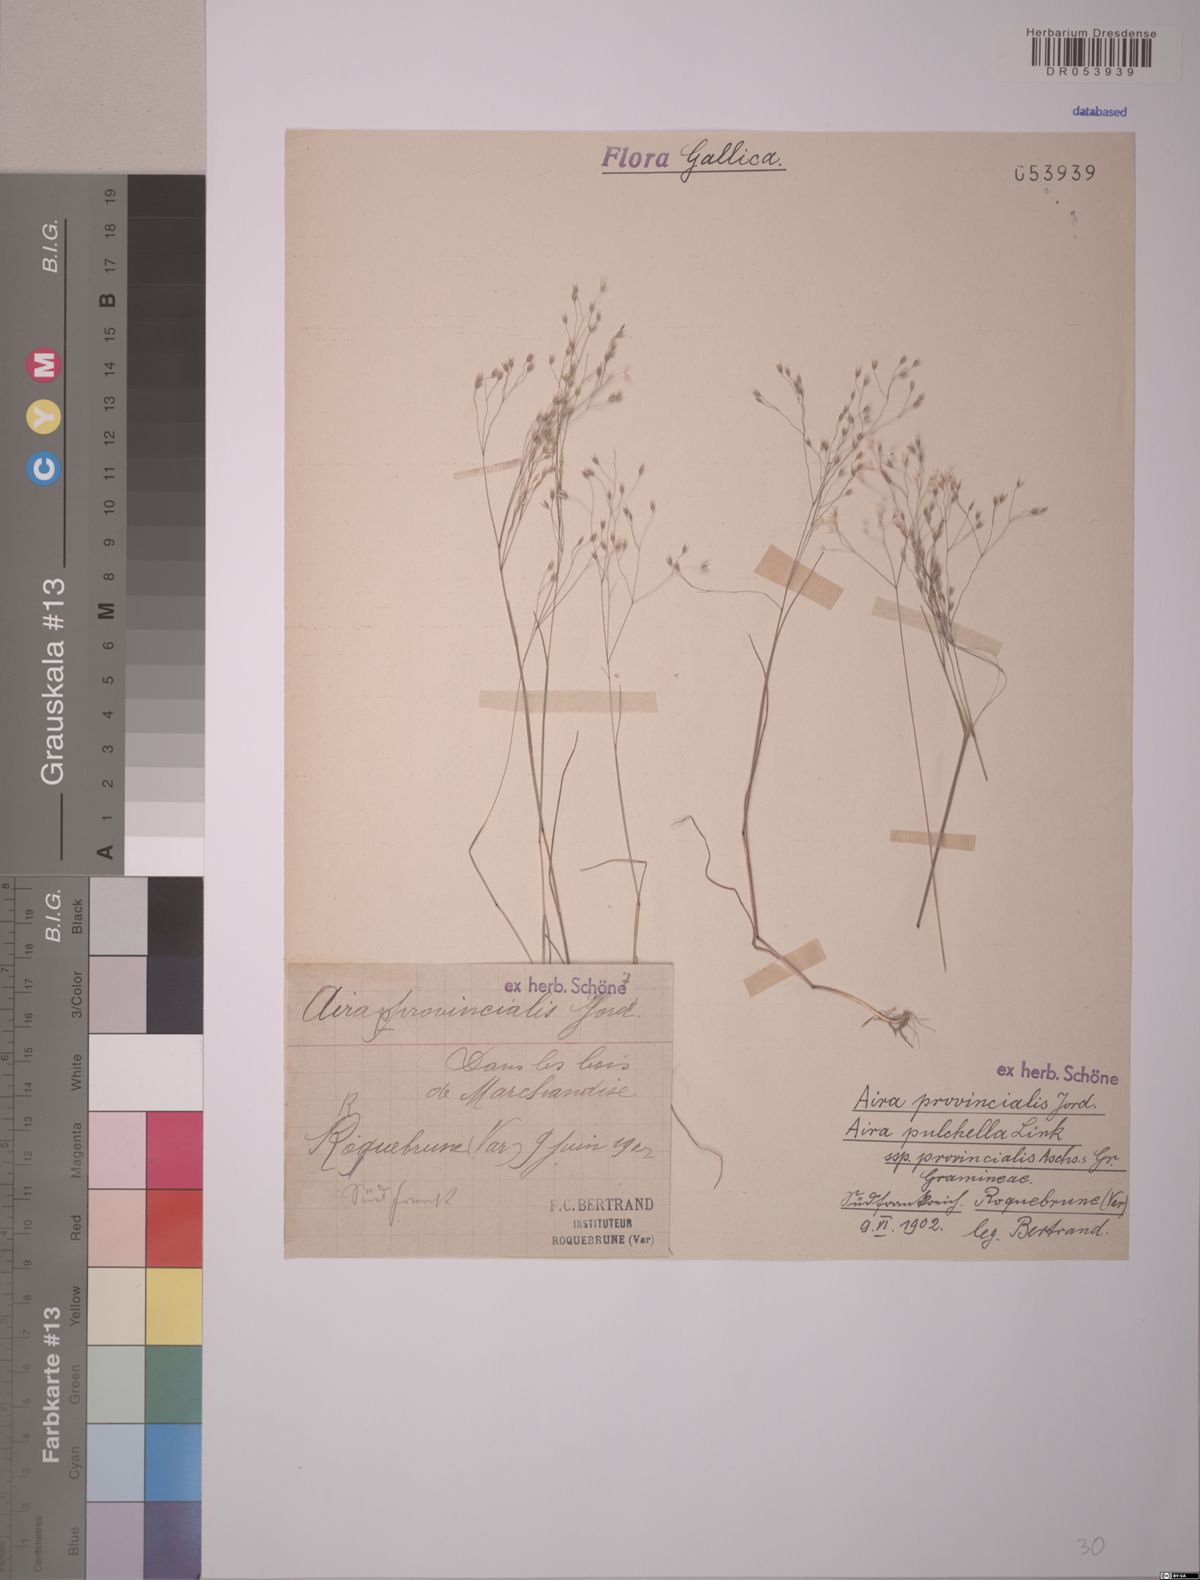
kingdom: Plantae
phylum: Tracheophyta
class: Liliopsida
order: Poales
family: Poaceae
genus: Aira
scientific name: Aira provincialis
